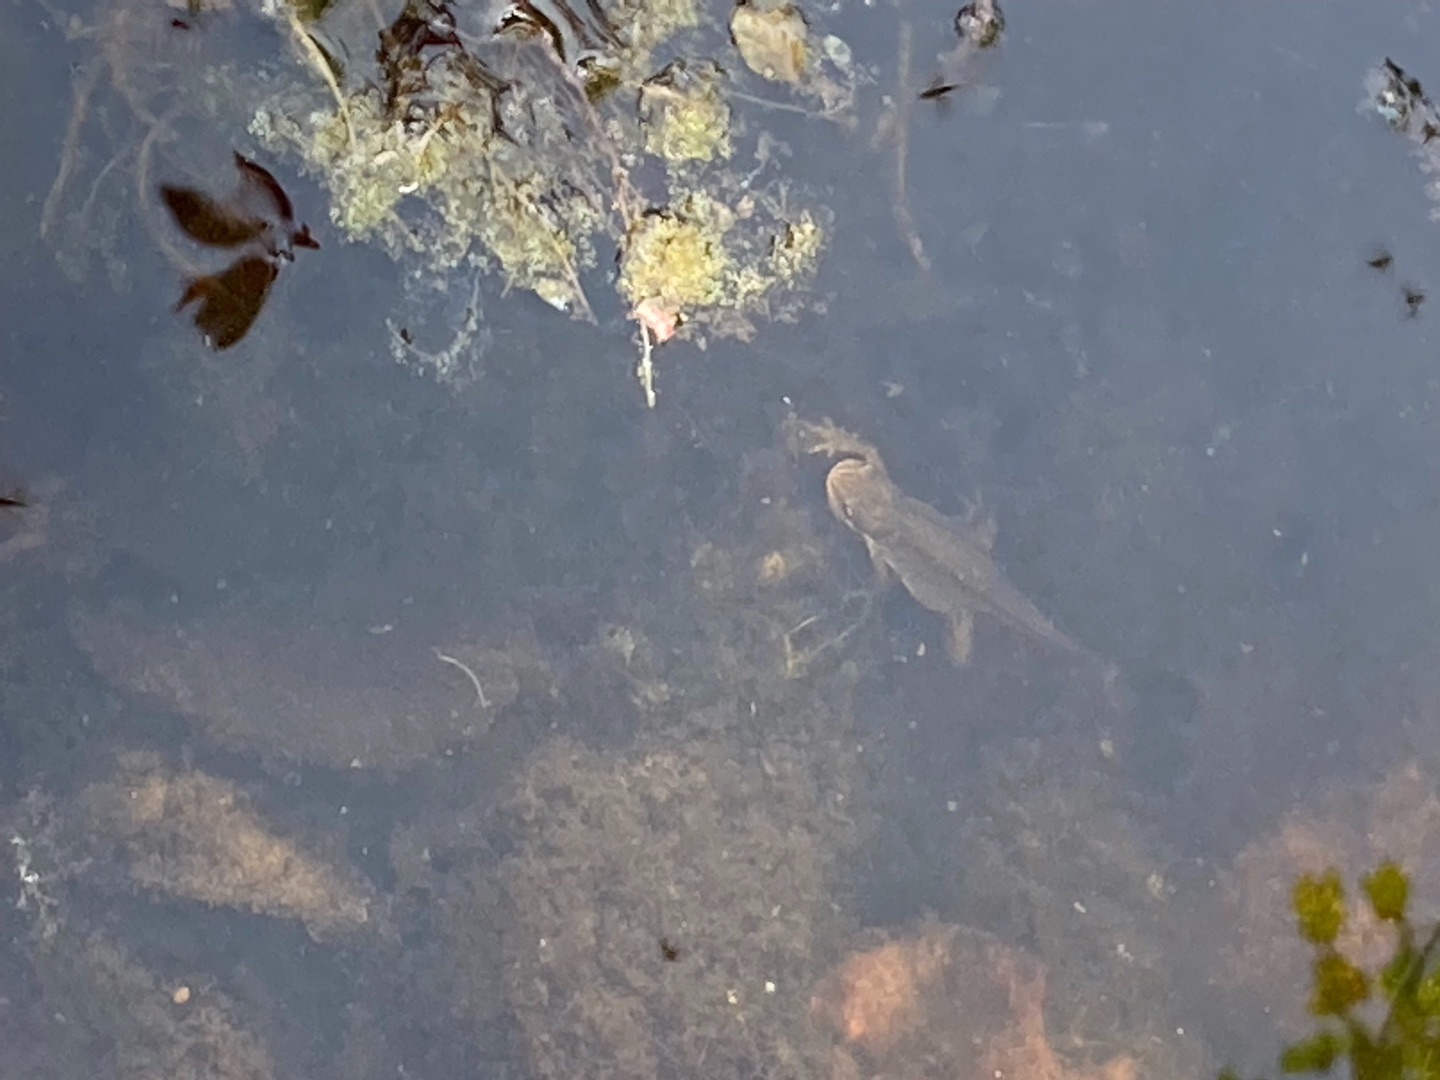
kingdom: Animalia
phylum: Chordata
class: Amphibia
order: Caudata
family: Salamandridae
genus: Lissotriton
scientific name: Lissotriton vulgaris
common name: Lille vandsalamander
